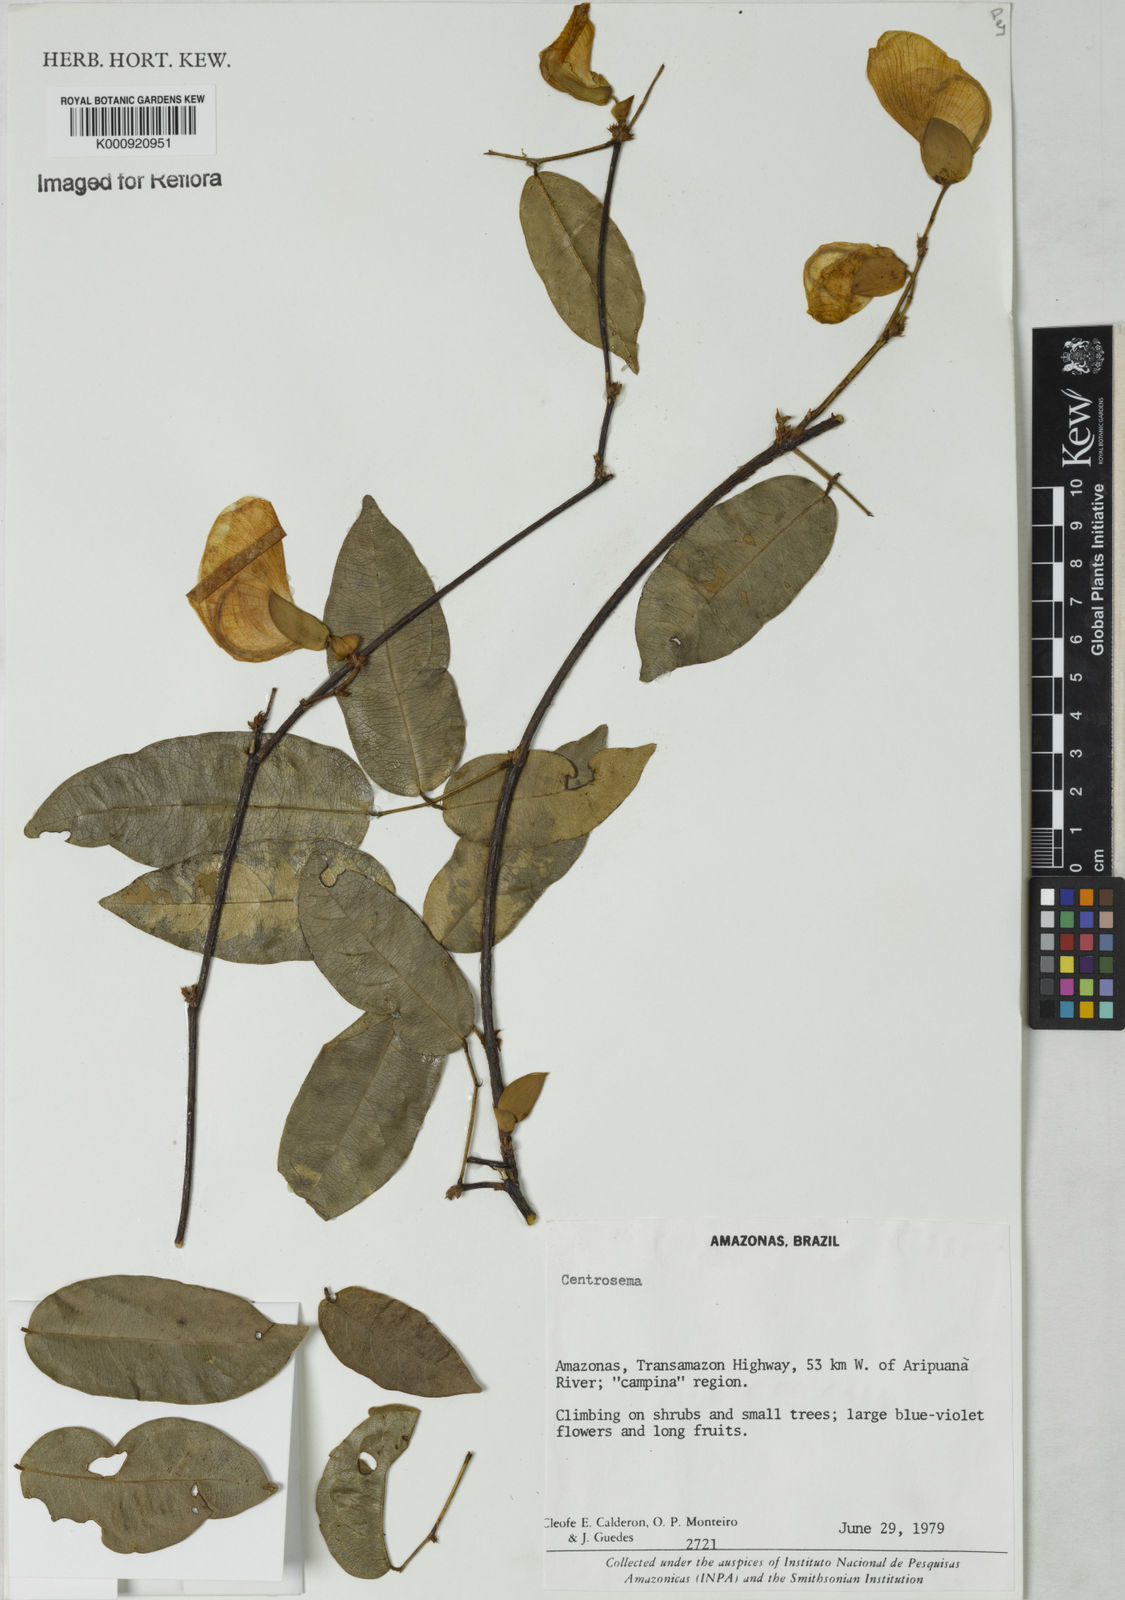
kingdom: Plantae
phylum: Tracheophyta
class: Magnoliopsida
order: Fabales
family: Fabaceae
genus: Centrosema
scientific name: Centrosema
